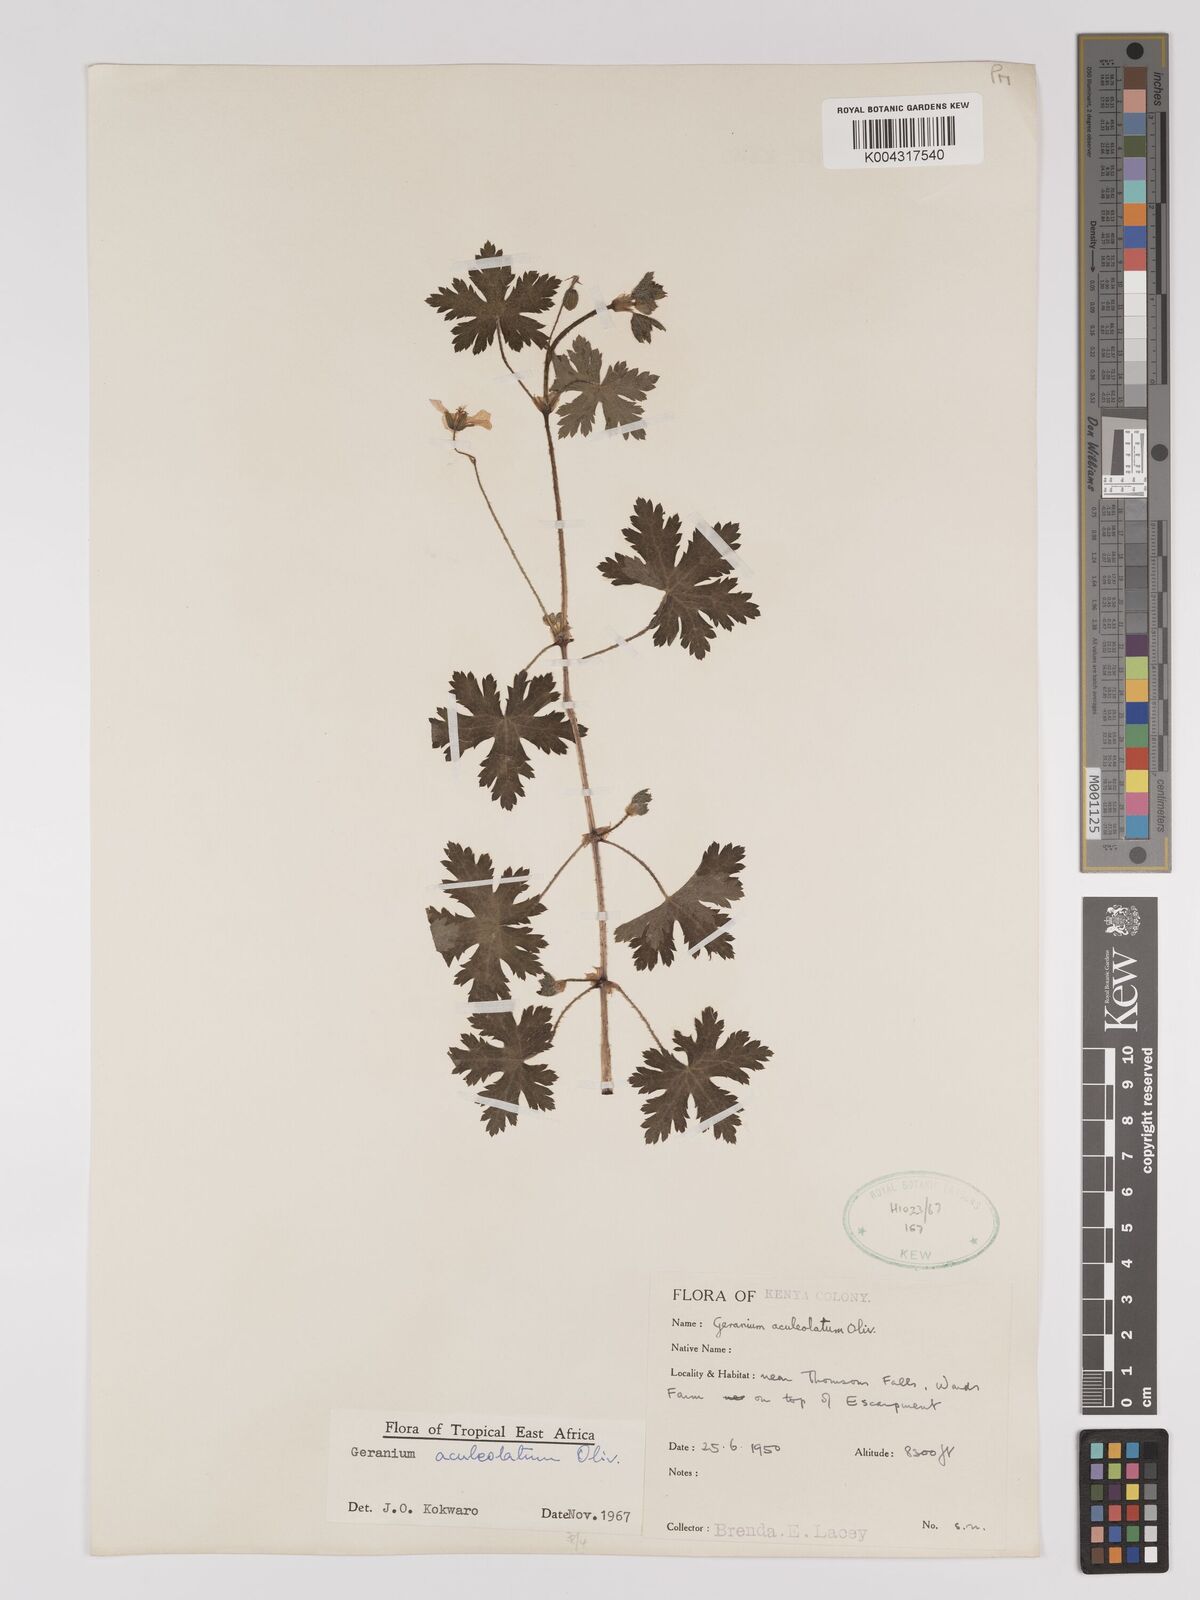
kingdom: Plantae
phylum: Tracheophyta
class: Magnoliopsida
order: Geraniales
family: Geraniaceae
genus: Geranium
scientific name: Geranium aculeolatum
